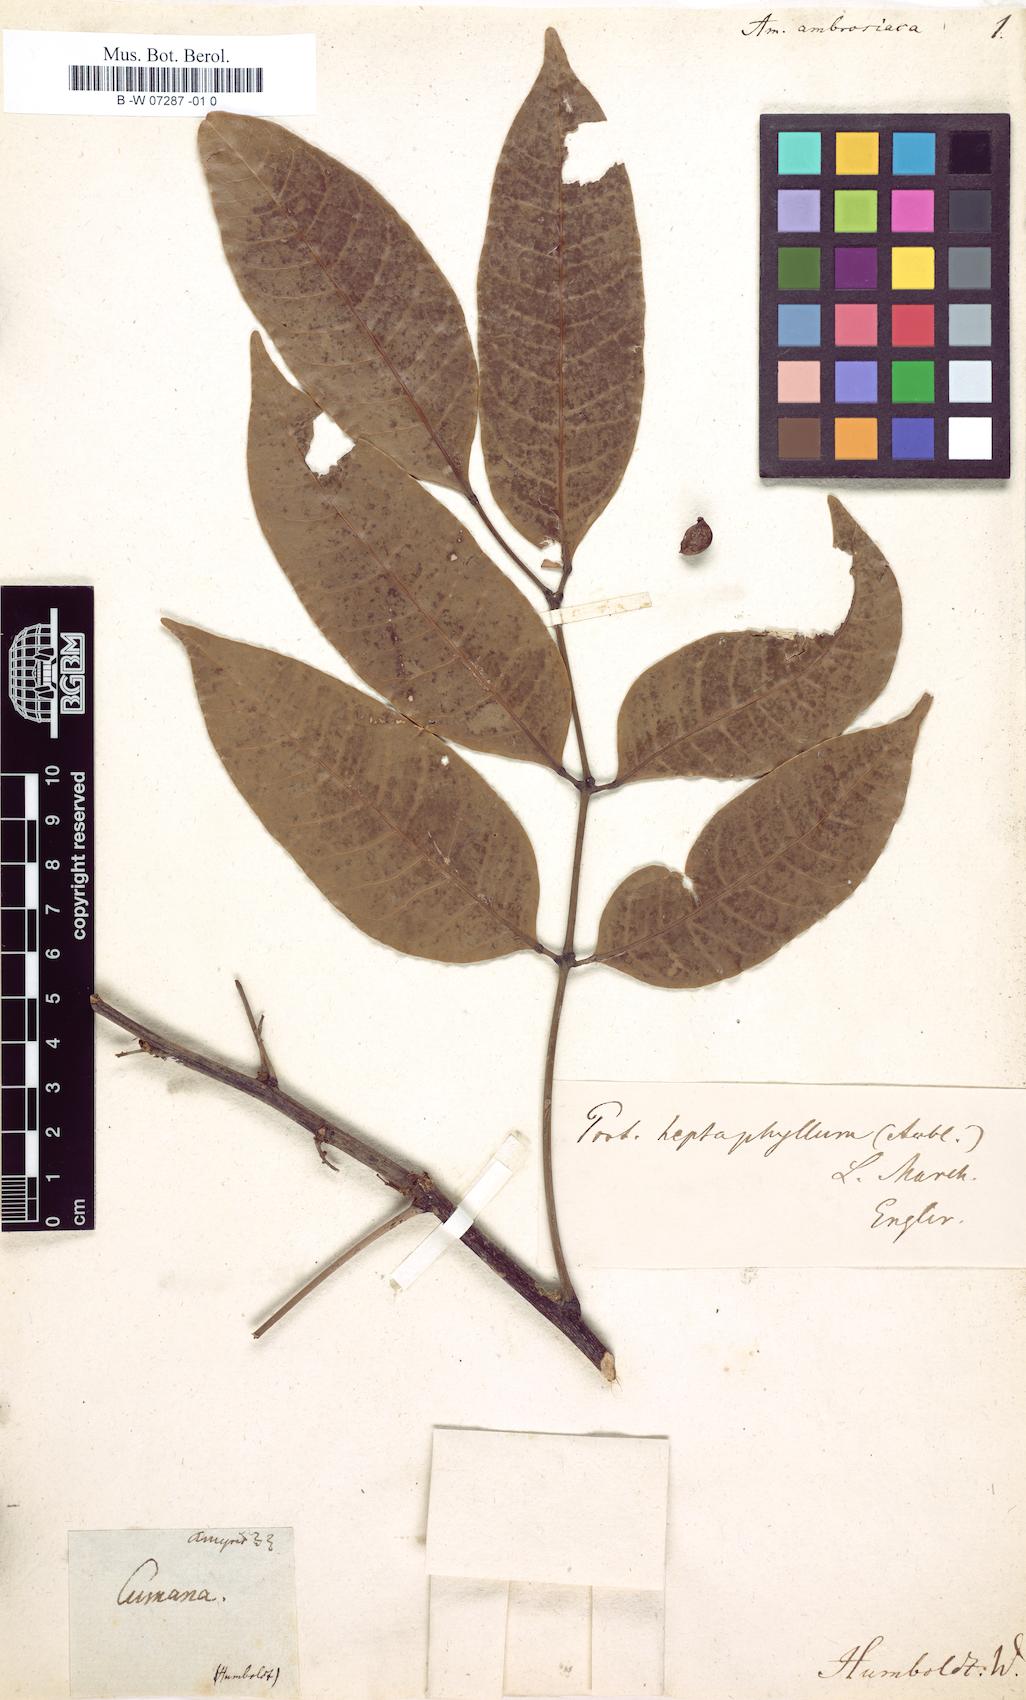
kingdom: Plantae
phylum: Tracheophyta
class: Magnoliopsida
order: Sapindales
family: Burseraceae
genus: Protium
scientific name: Protium guianense
